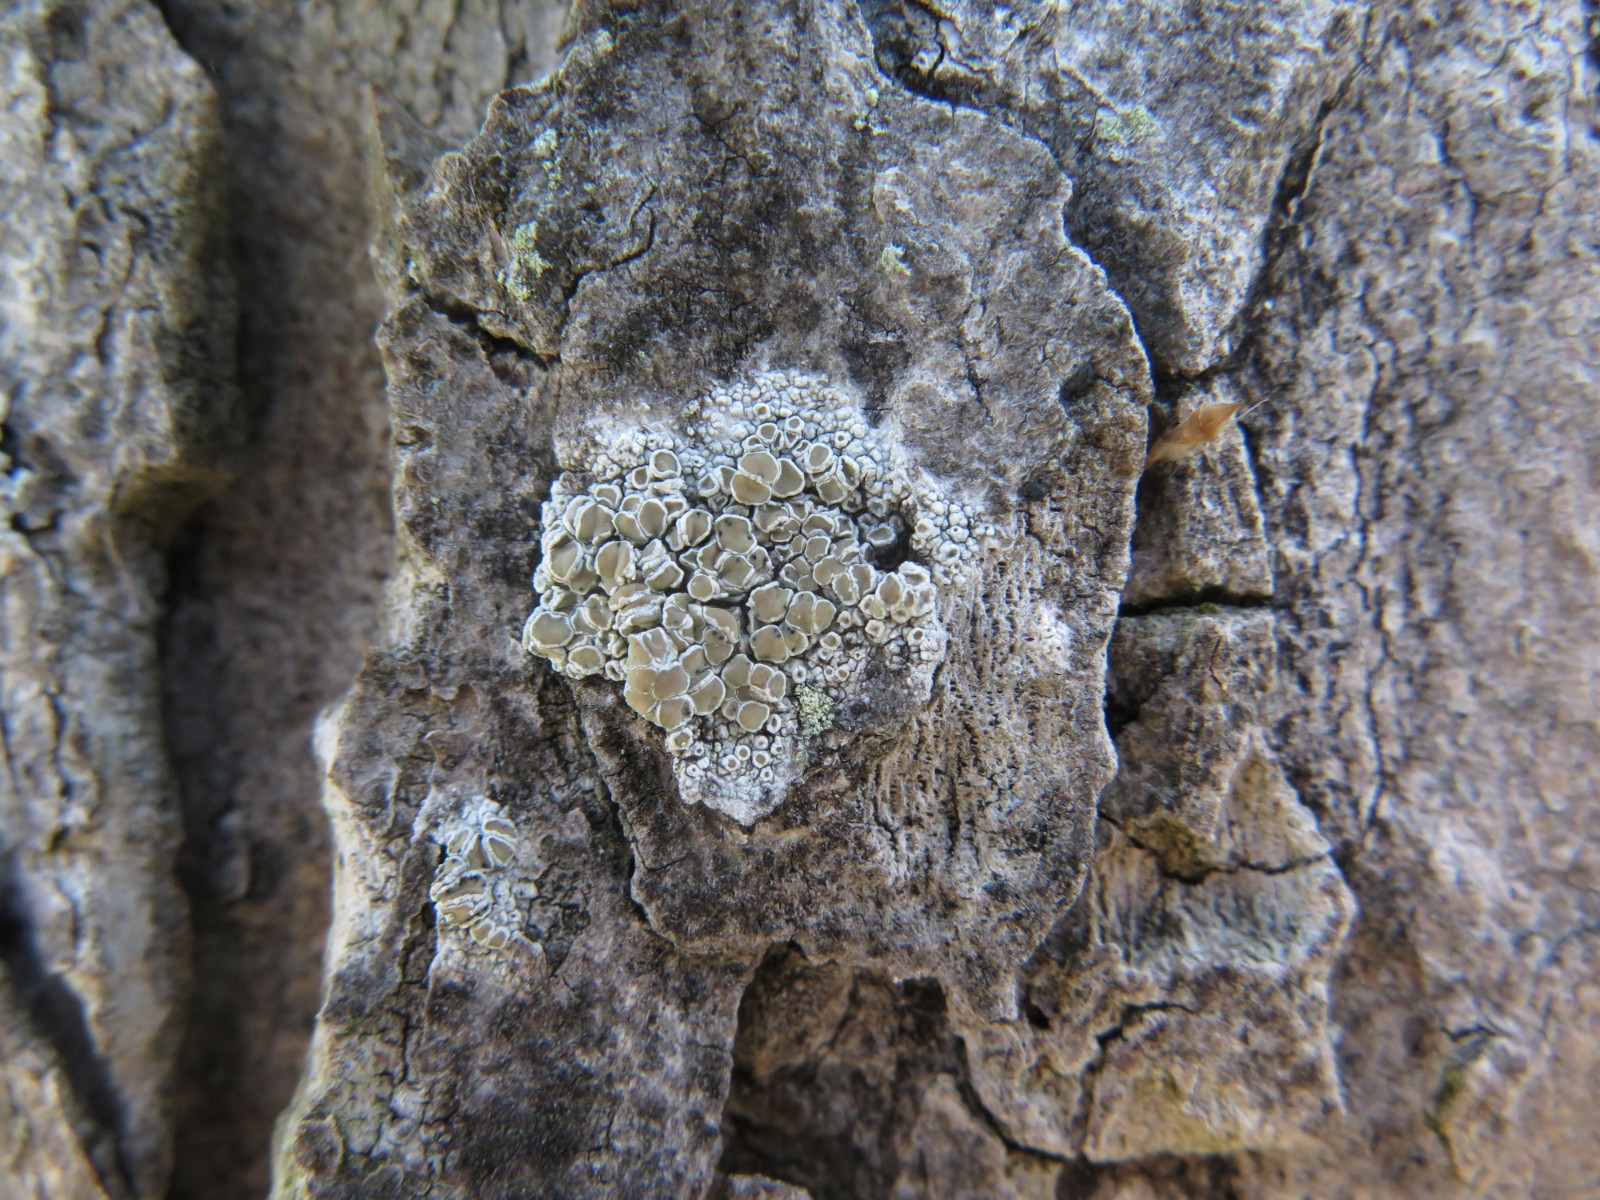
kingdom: Fungi
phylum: Ascomycota
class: Lecanoromycetes
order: Lecanorales
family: Lecanoraceae
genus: Lecanora
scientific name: Lecanora chlarotera
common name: brun kantskivelav
